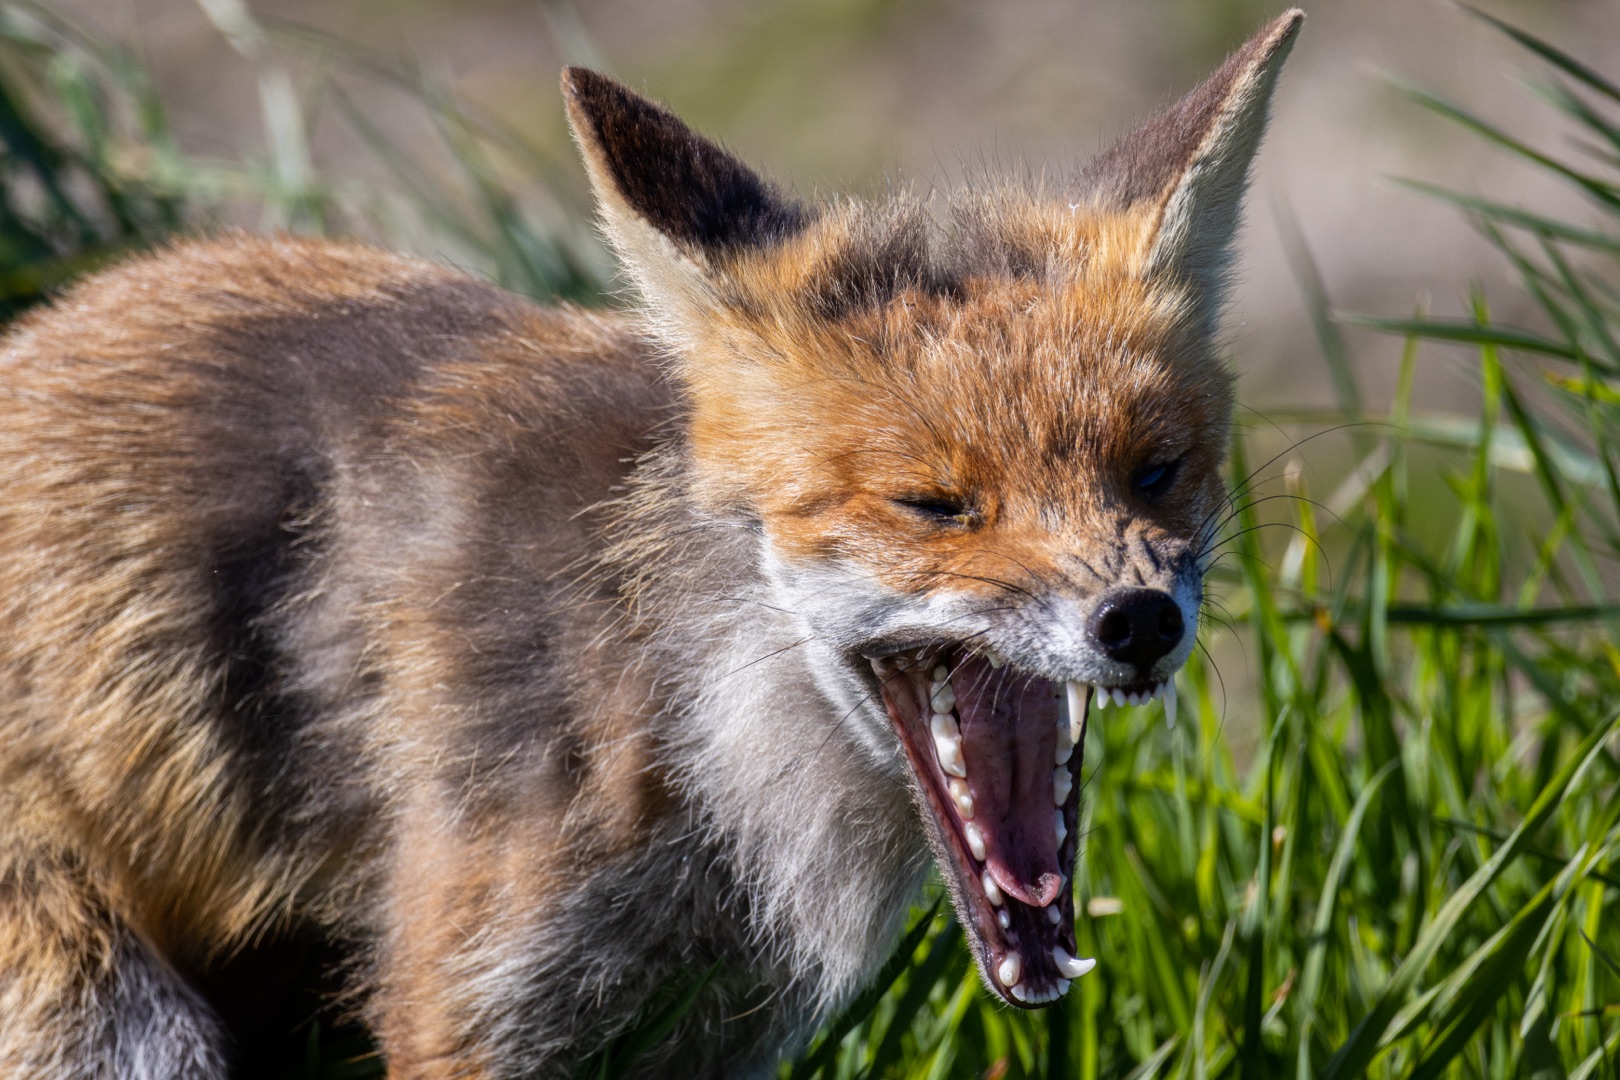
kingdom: Animalia
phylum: Chordata
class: Mammalia
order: Carnivora
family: Canidae
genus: Vulpes
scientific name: Vulpes vulpes
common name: Ræv
